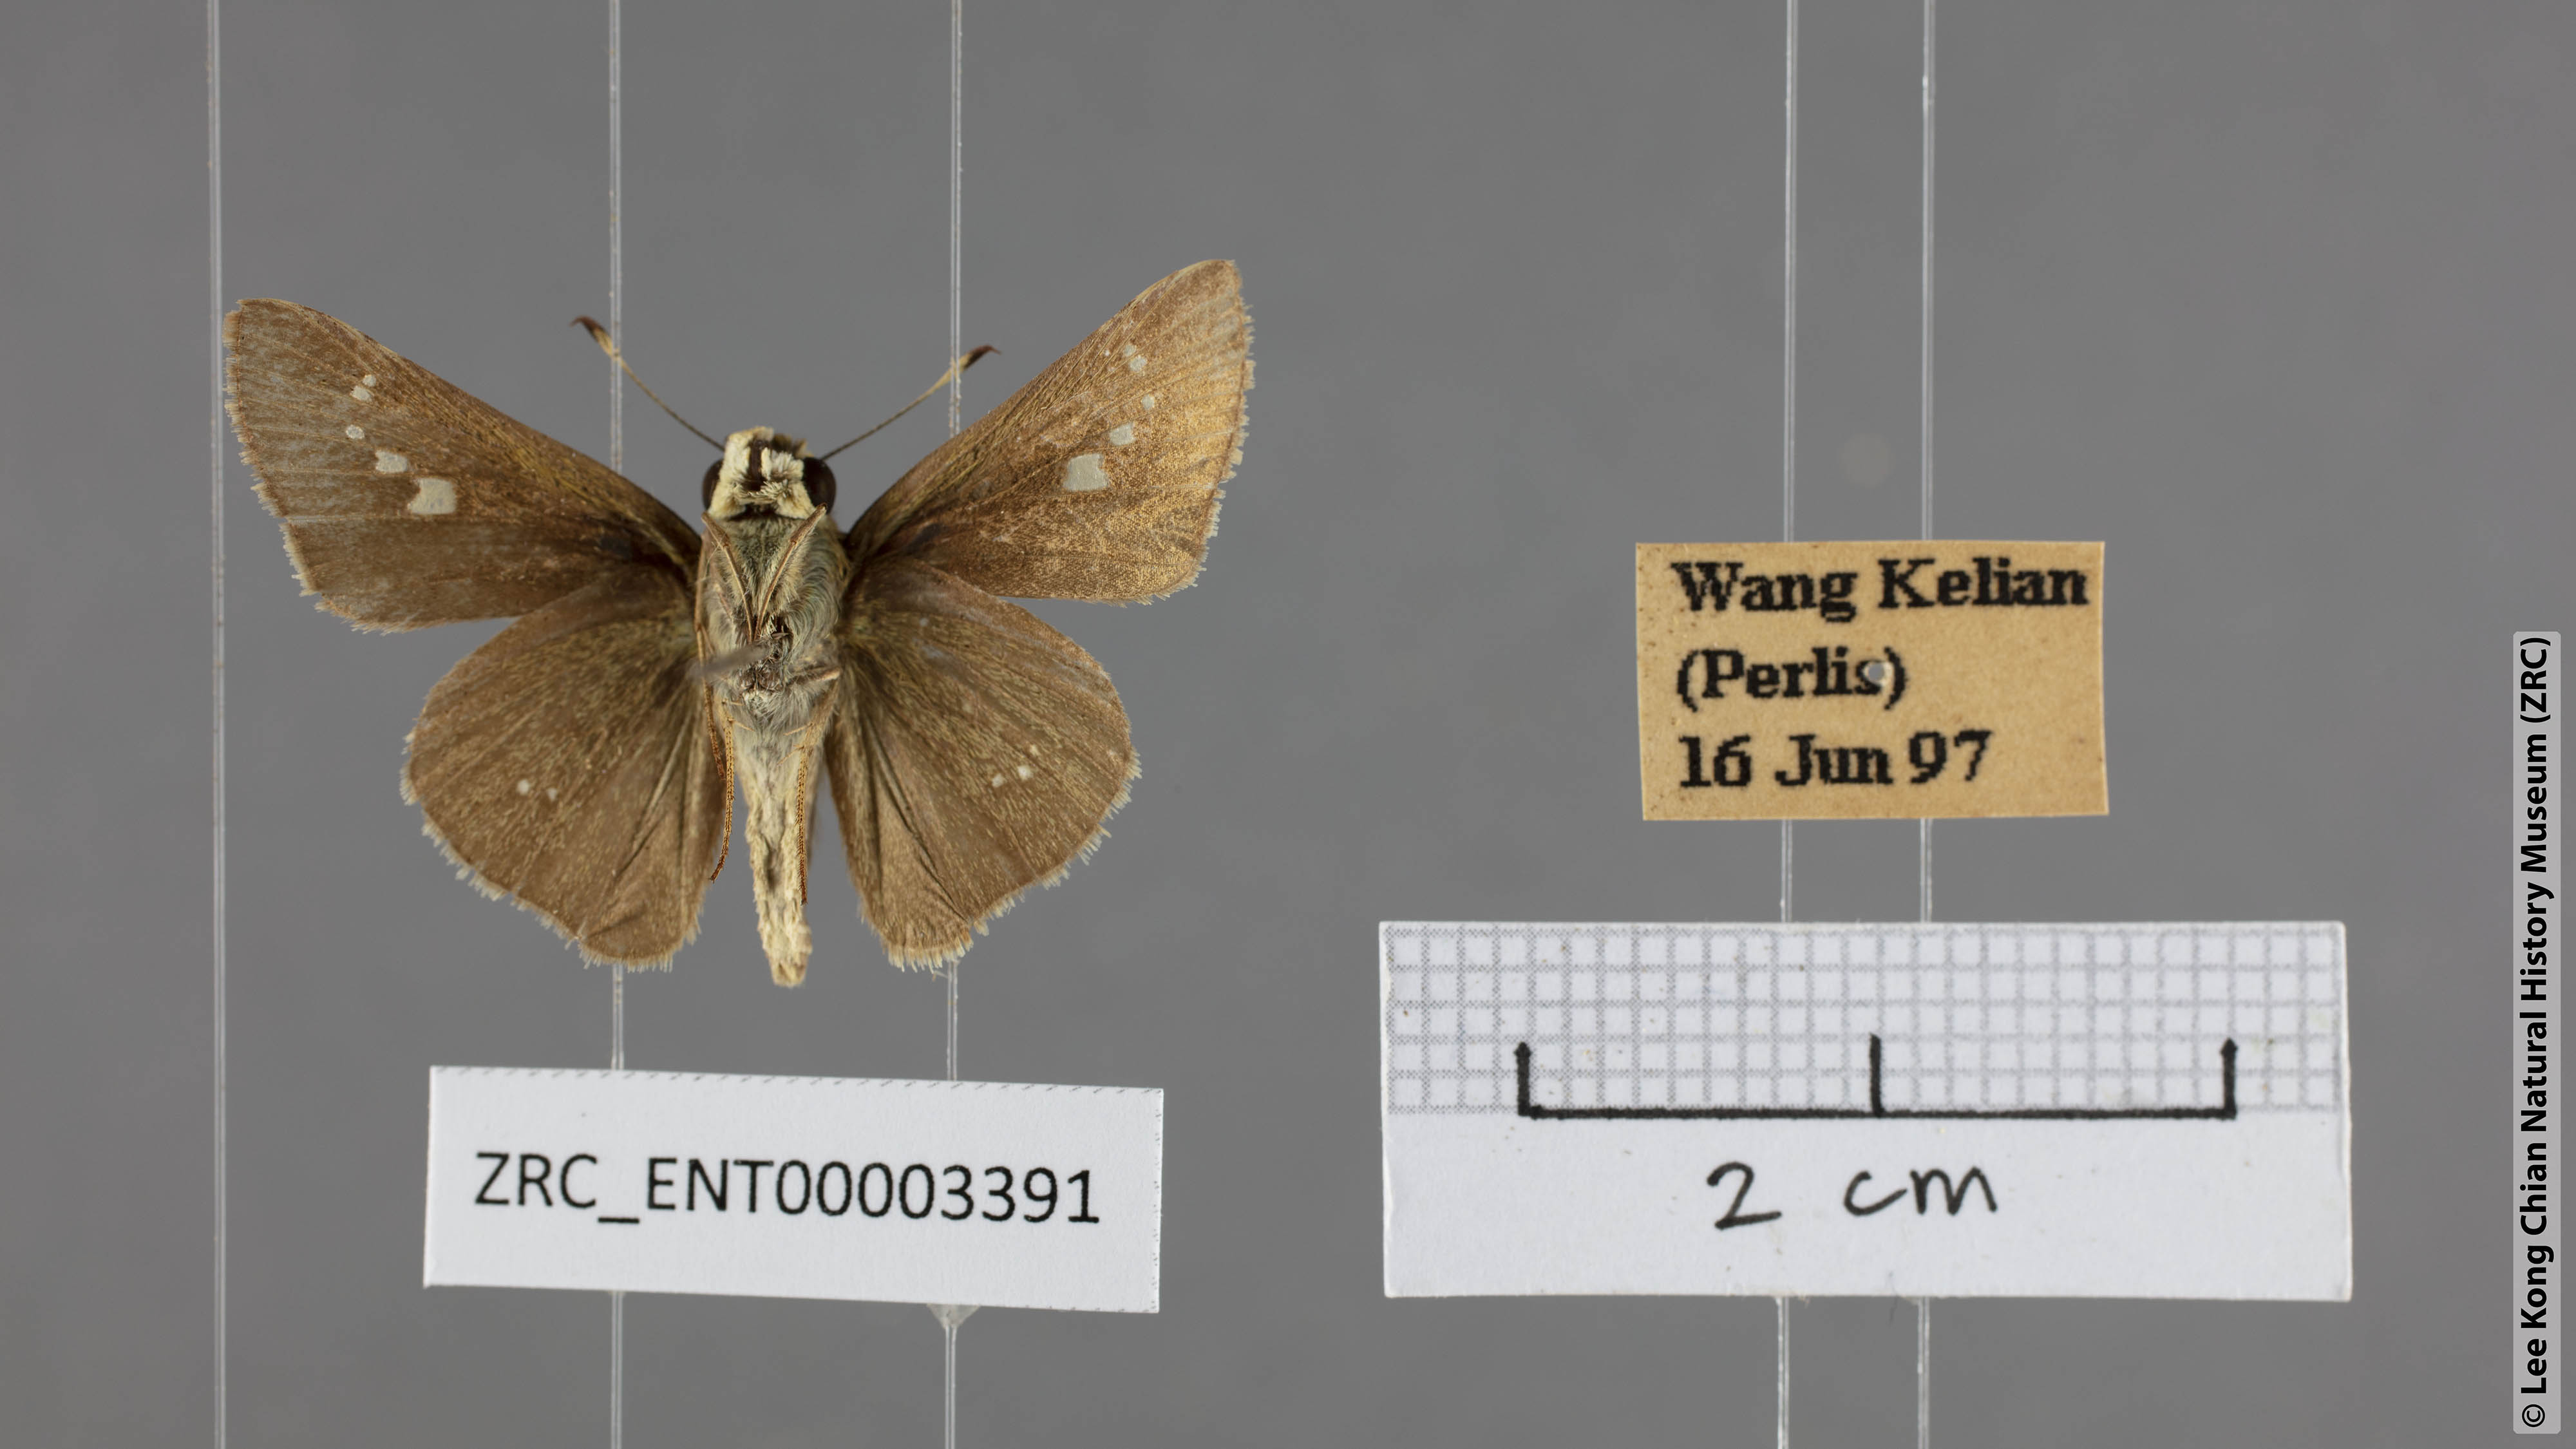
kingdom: Animalia
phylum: Arthropoda
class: Insecta
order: Lepidoptera
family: Hesperiidae
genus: Parnara
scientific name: Parnara naso
